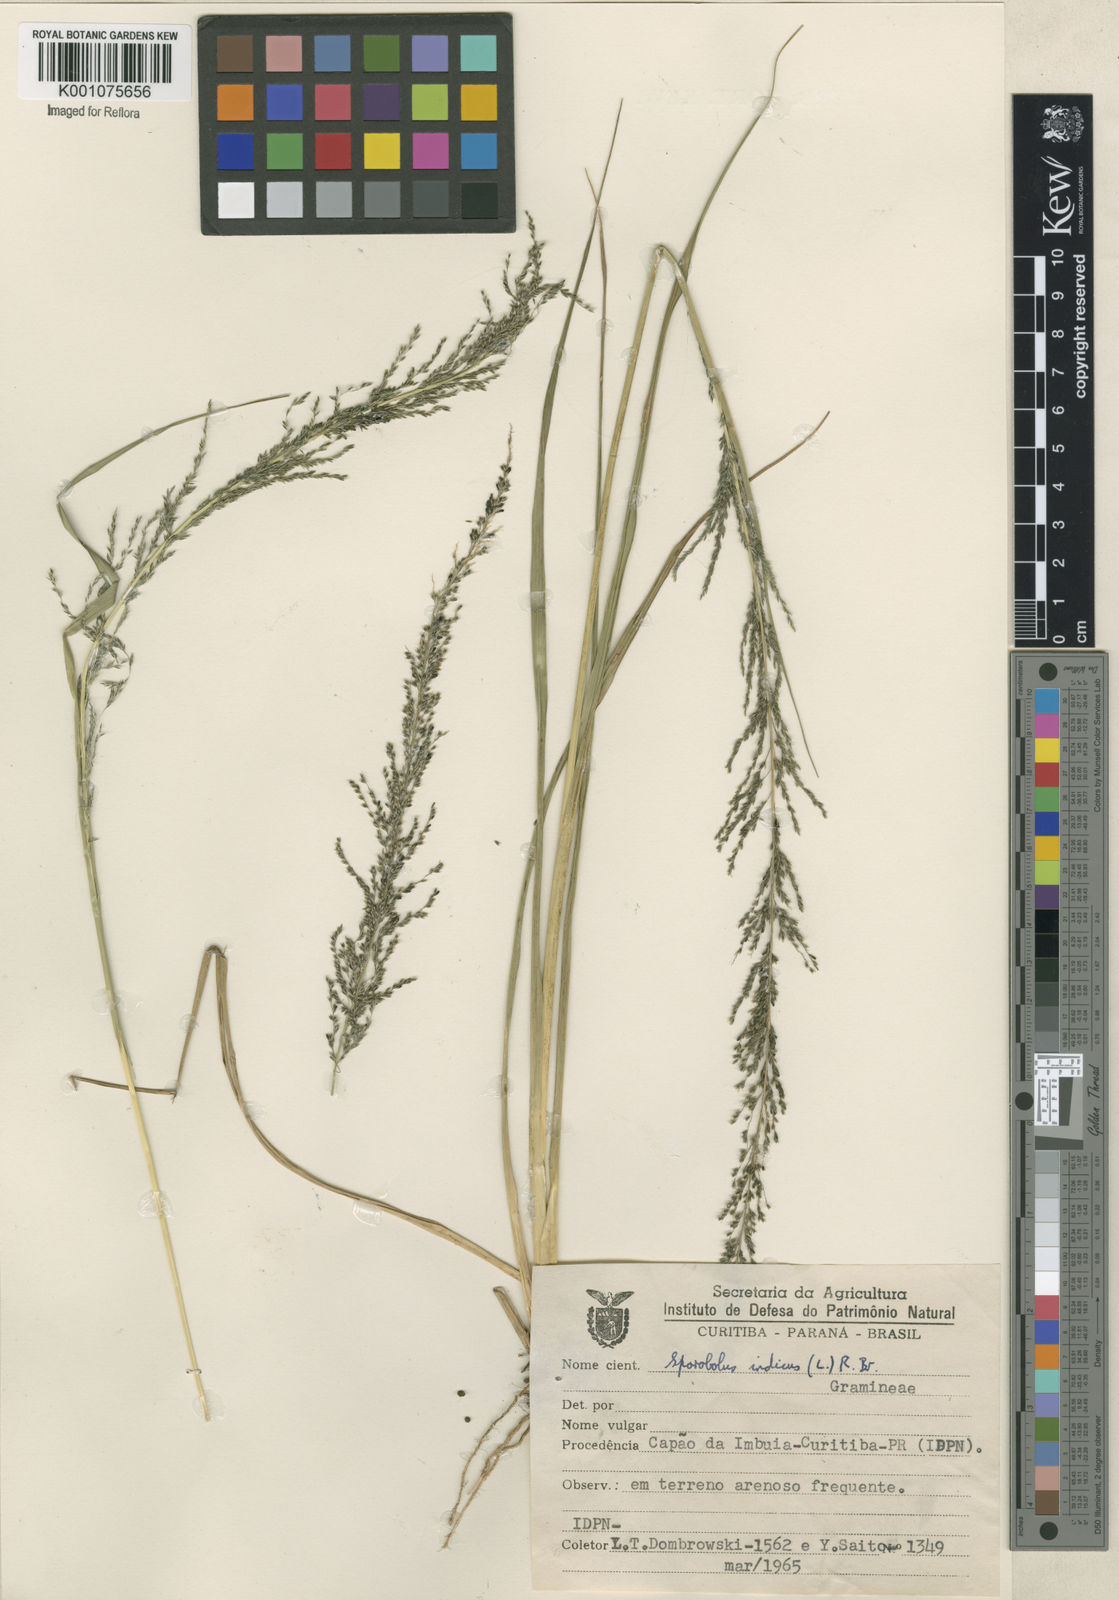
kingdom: Plantae
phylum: Tracheophyta
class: Liliopsida
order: Poales
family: Poaceae
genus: Sporobolus
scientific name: Sporobolus indicus
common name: Smut grass
